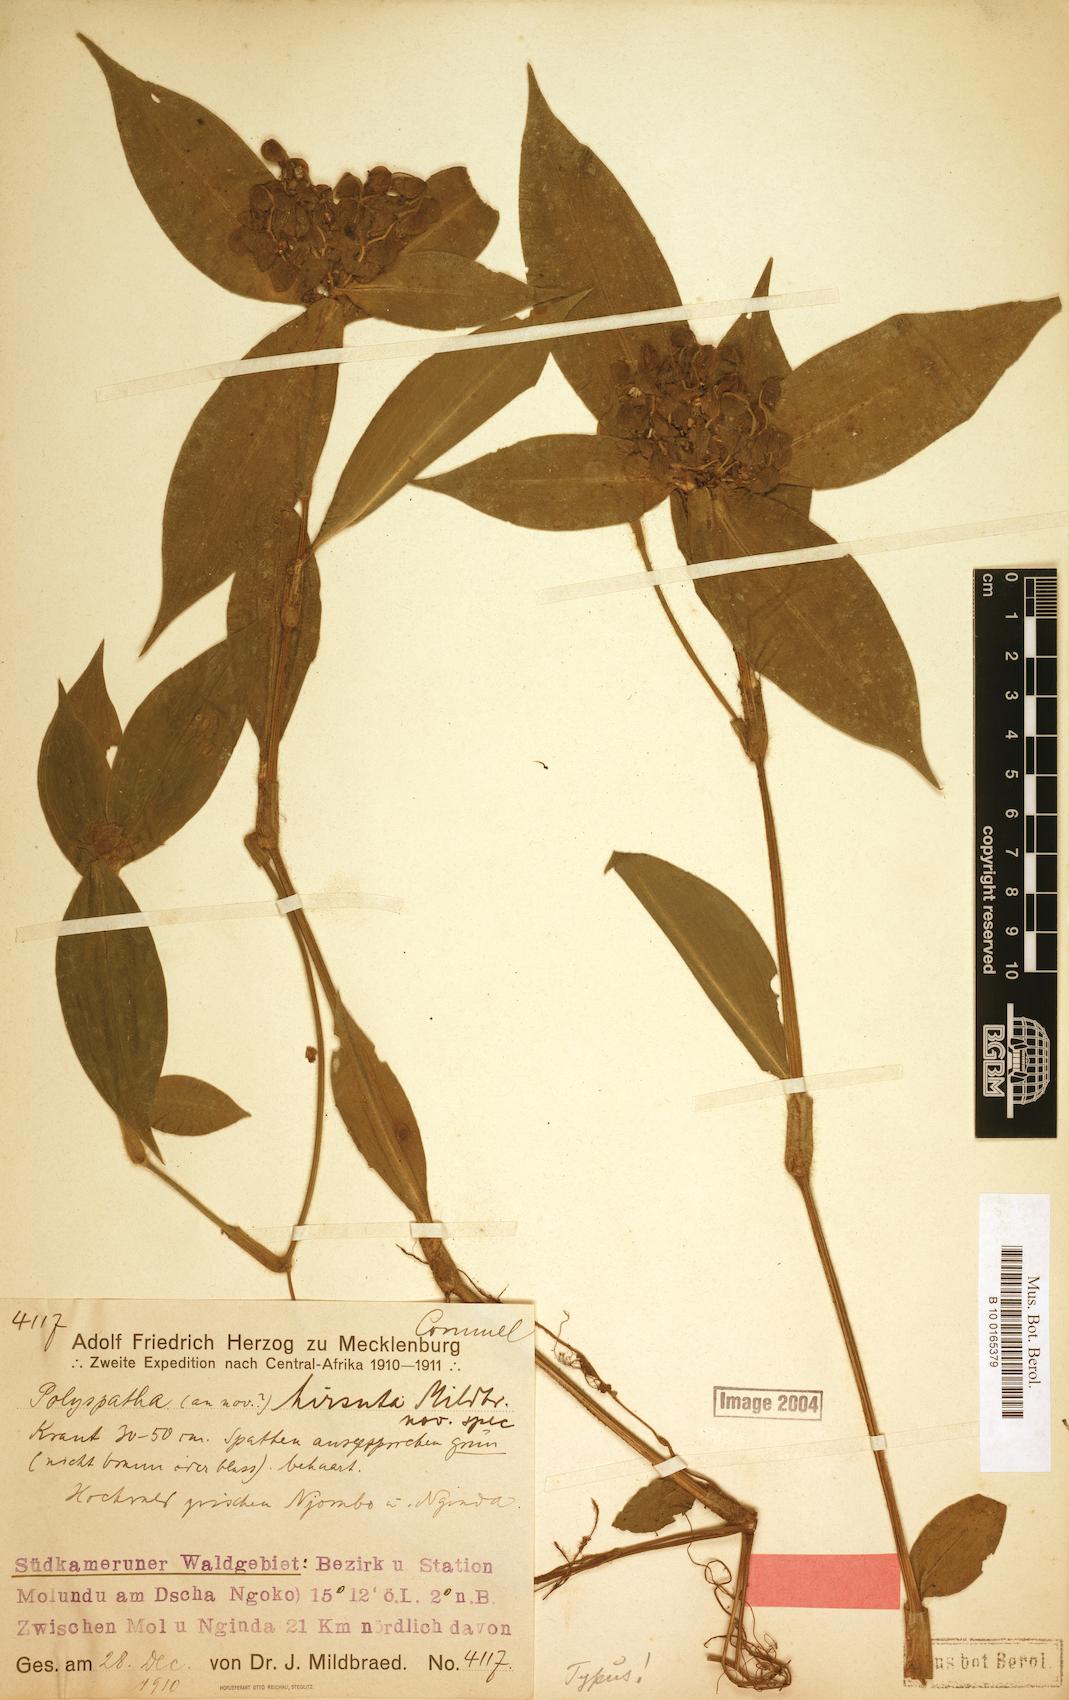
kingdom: Plantae
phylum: Tracheophyta
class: Liliopsida
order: Commelinales
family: Commelinaceae
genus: Polyspatha
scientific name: Polyspatha hirsuta
